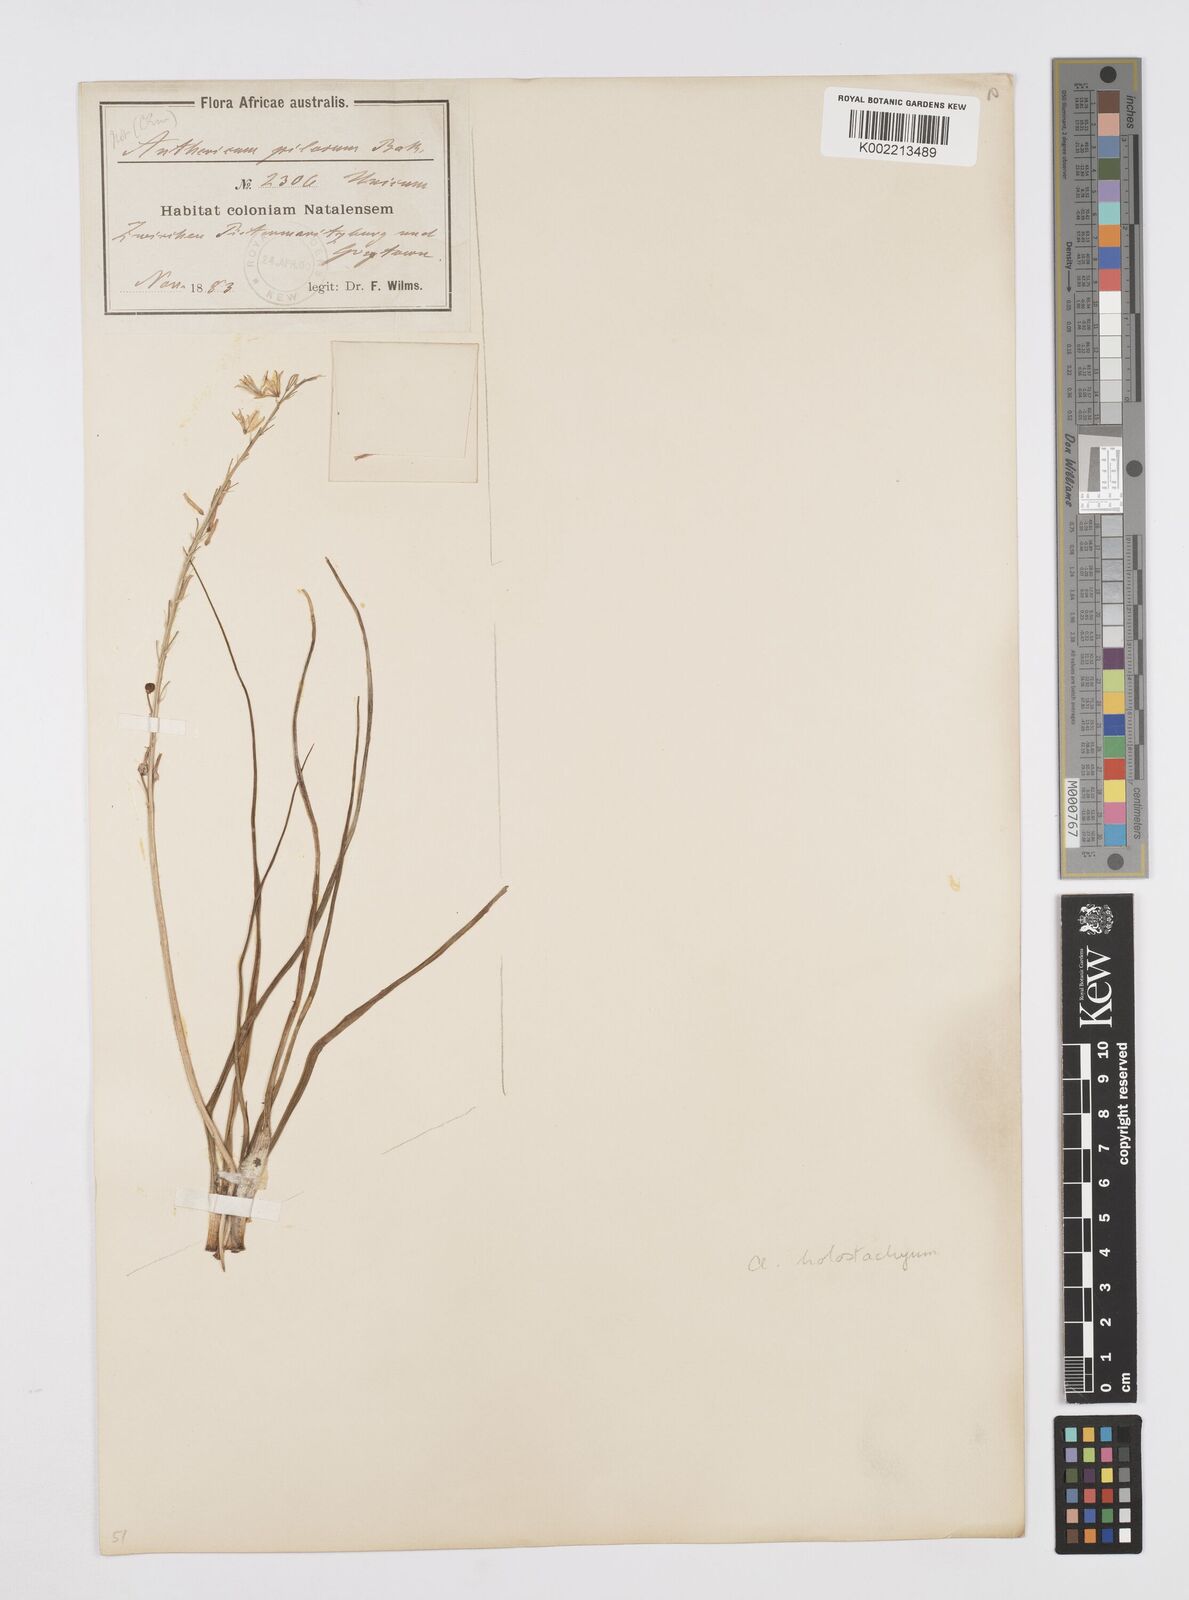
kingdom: Plantae
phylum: Tracheophyta
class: Liliopsida
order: Asparagales
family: Asphodelaceae
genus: Trachyandra
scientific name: Trachyandra saltii
